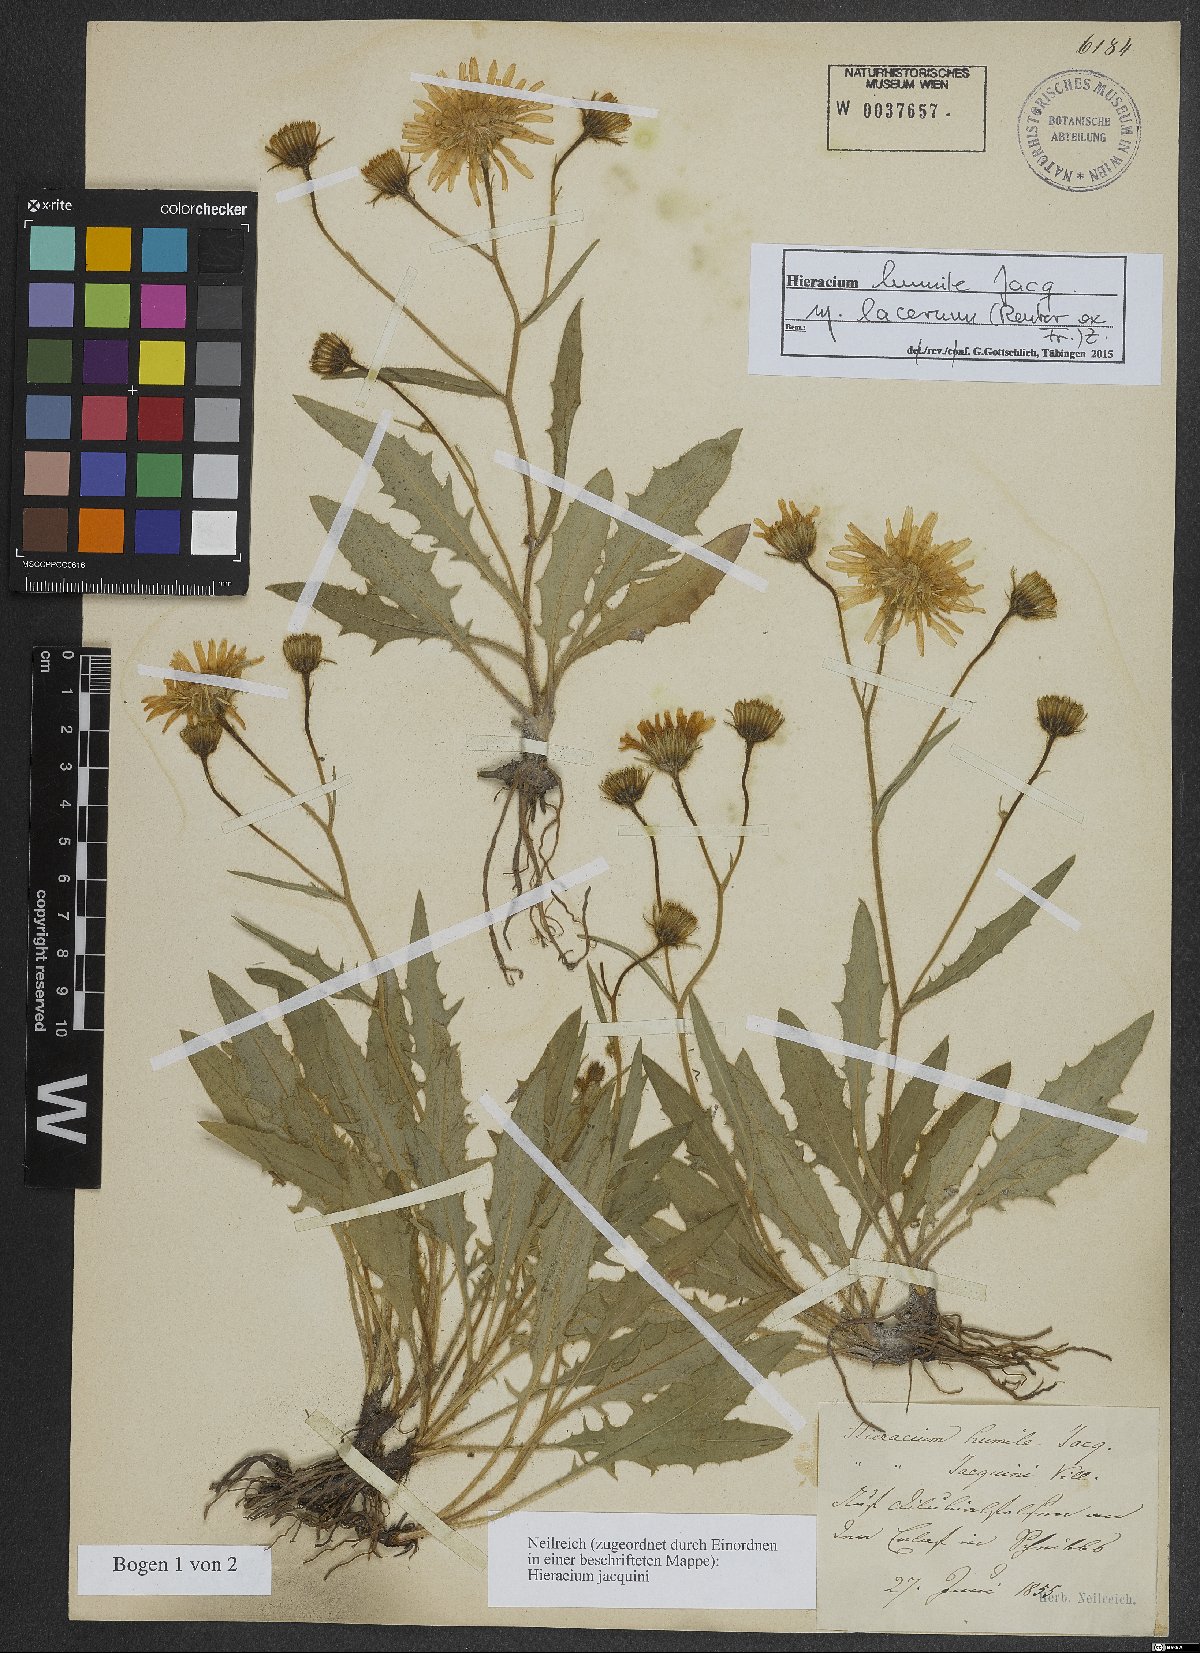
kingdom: Plantae
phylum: Tracheophyta
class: Magnoliopsida
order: Asterales
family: Asteraceae
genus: Hieracium
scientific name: Hieracium humile
